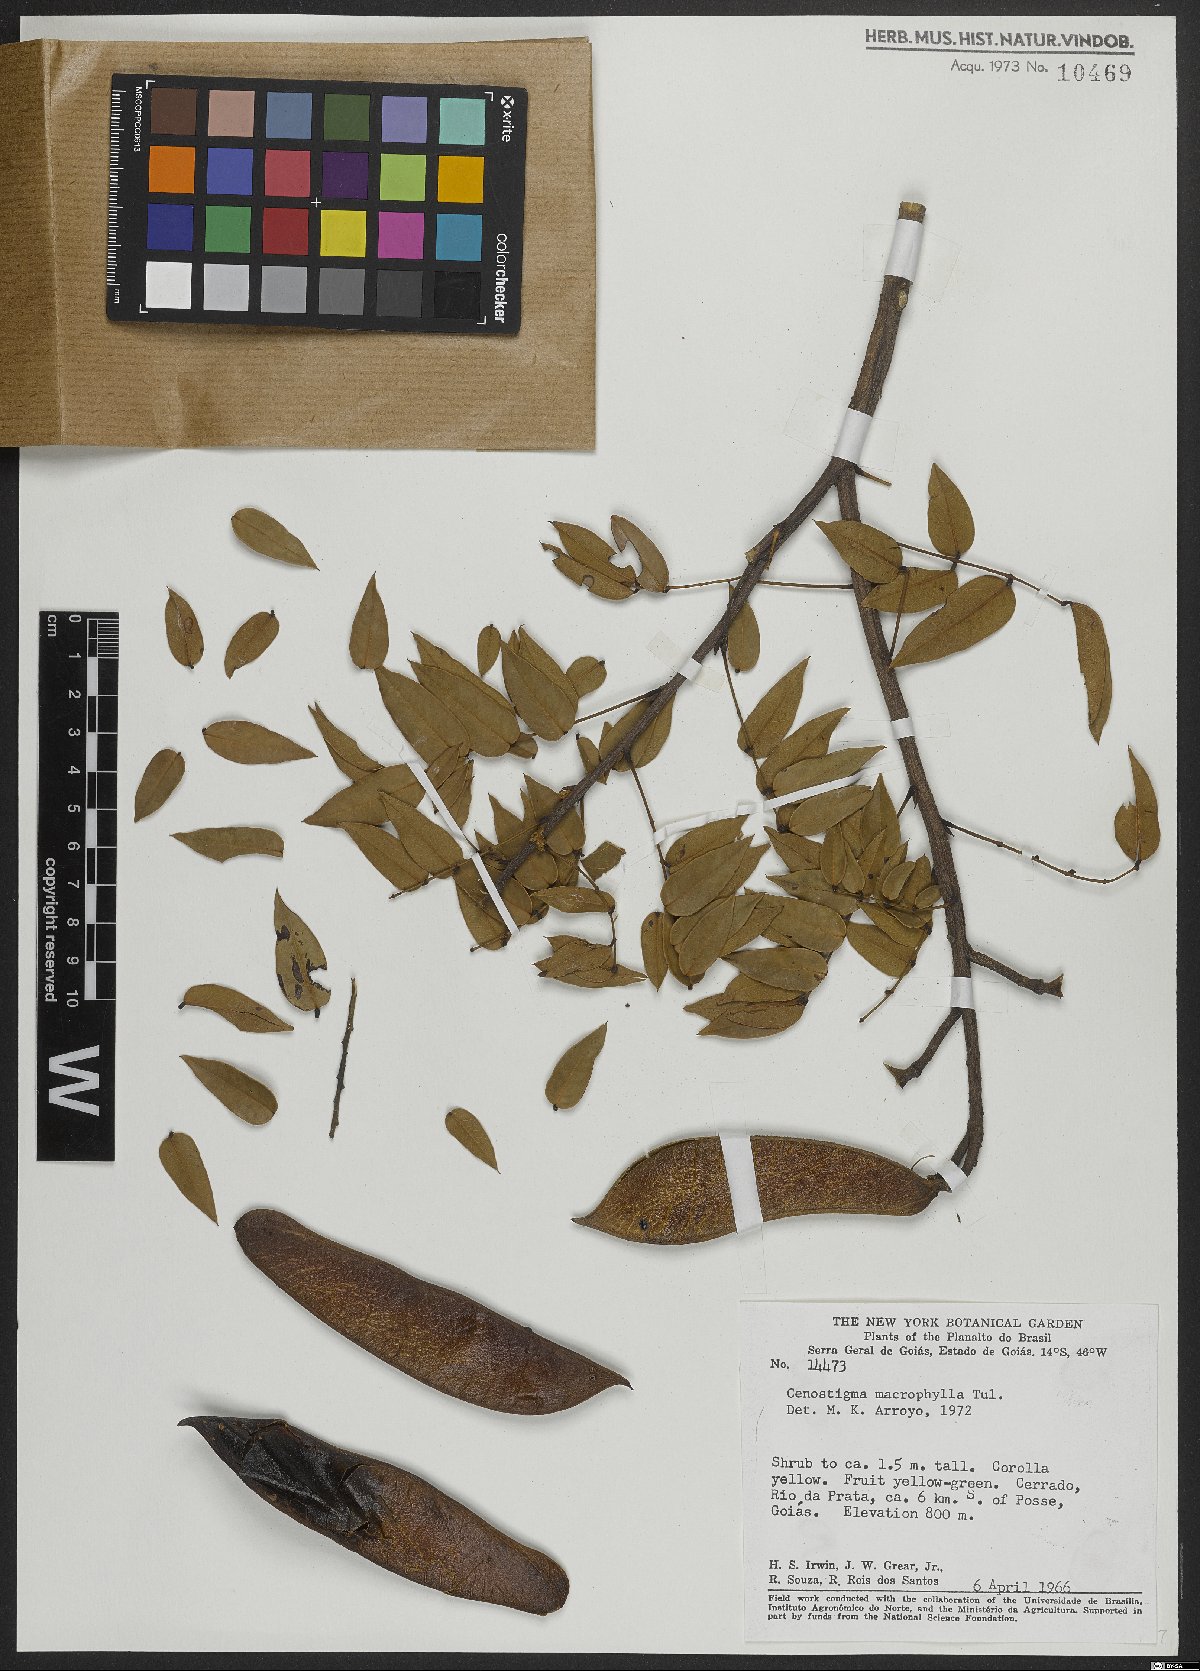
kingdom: Plantae
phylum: Tracheophyta
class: Magnoliopsida
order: Fabales
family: Fabaceae
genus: Cenostigma
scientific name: Cenostigma macrophyllum
